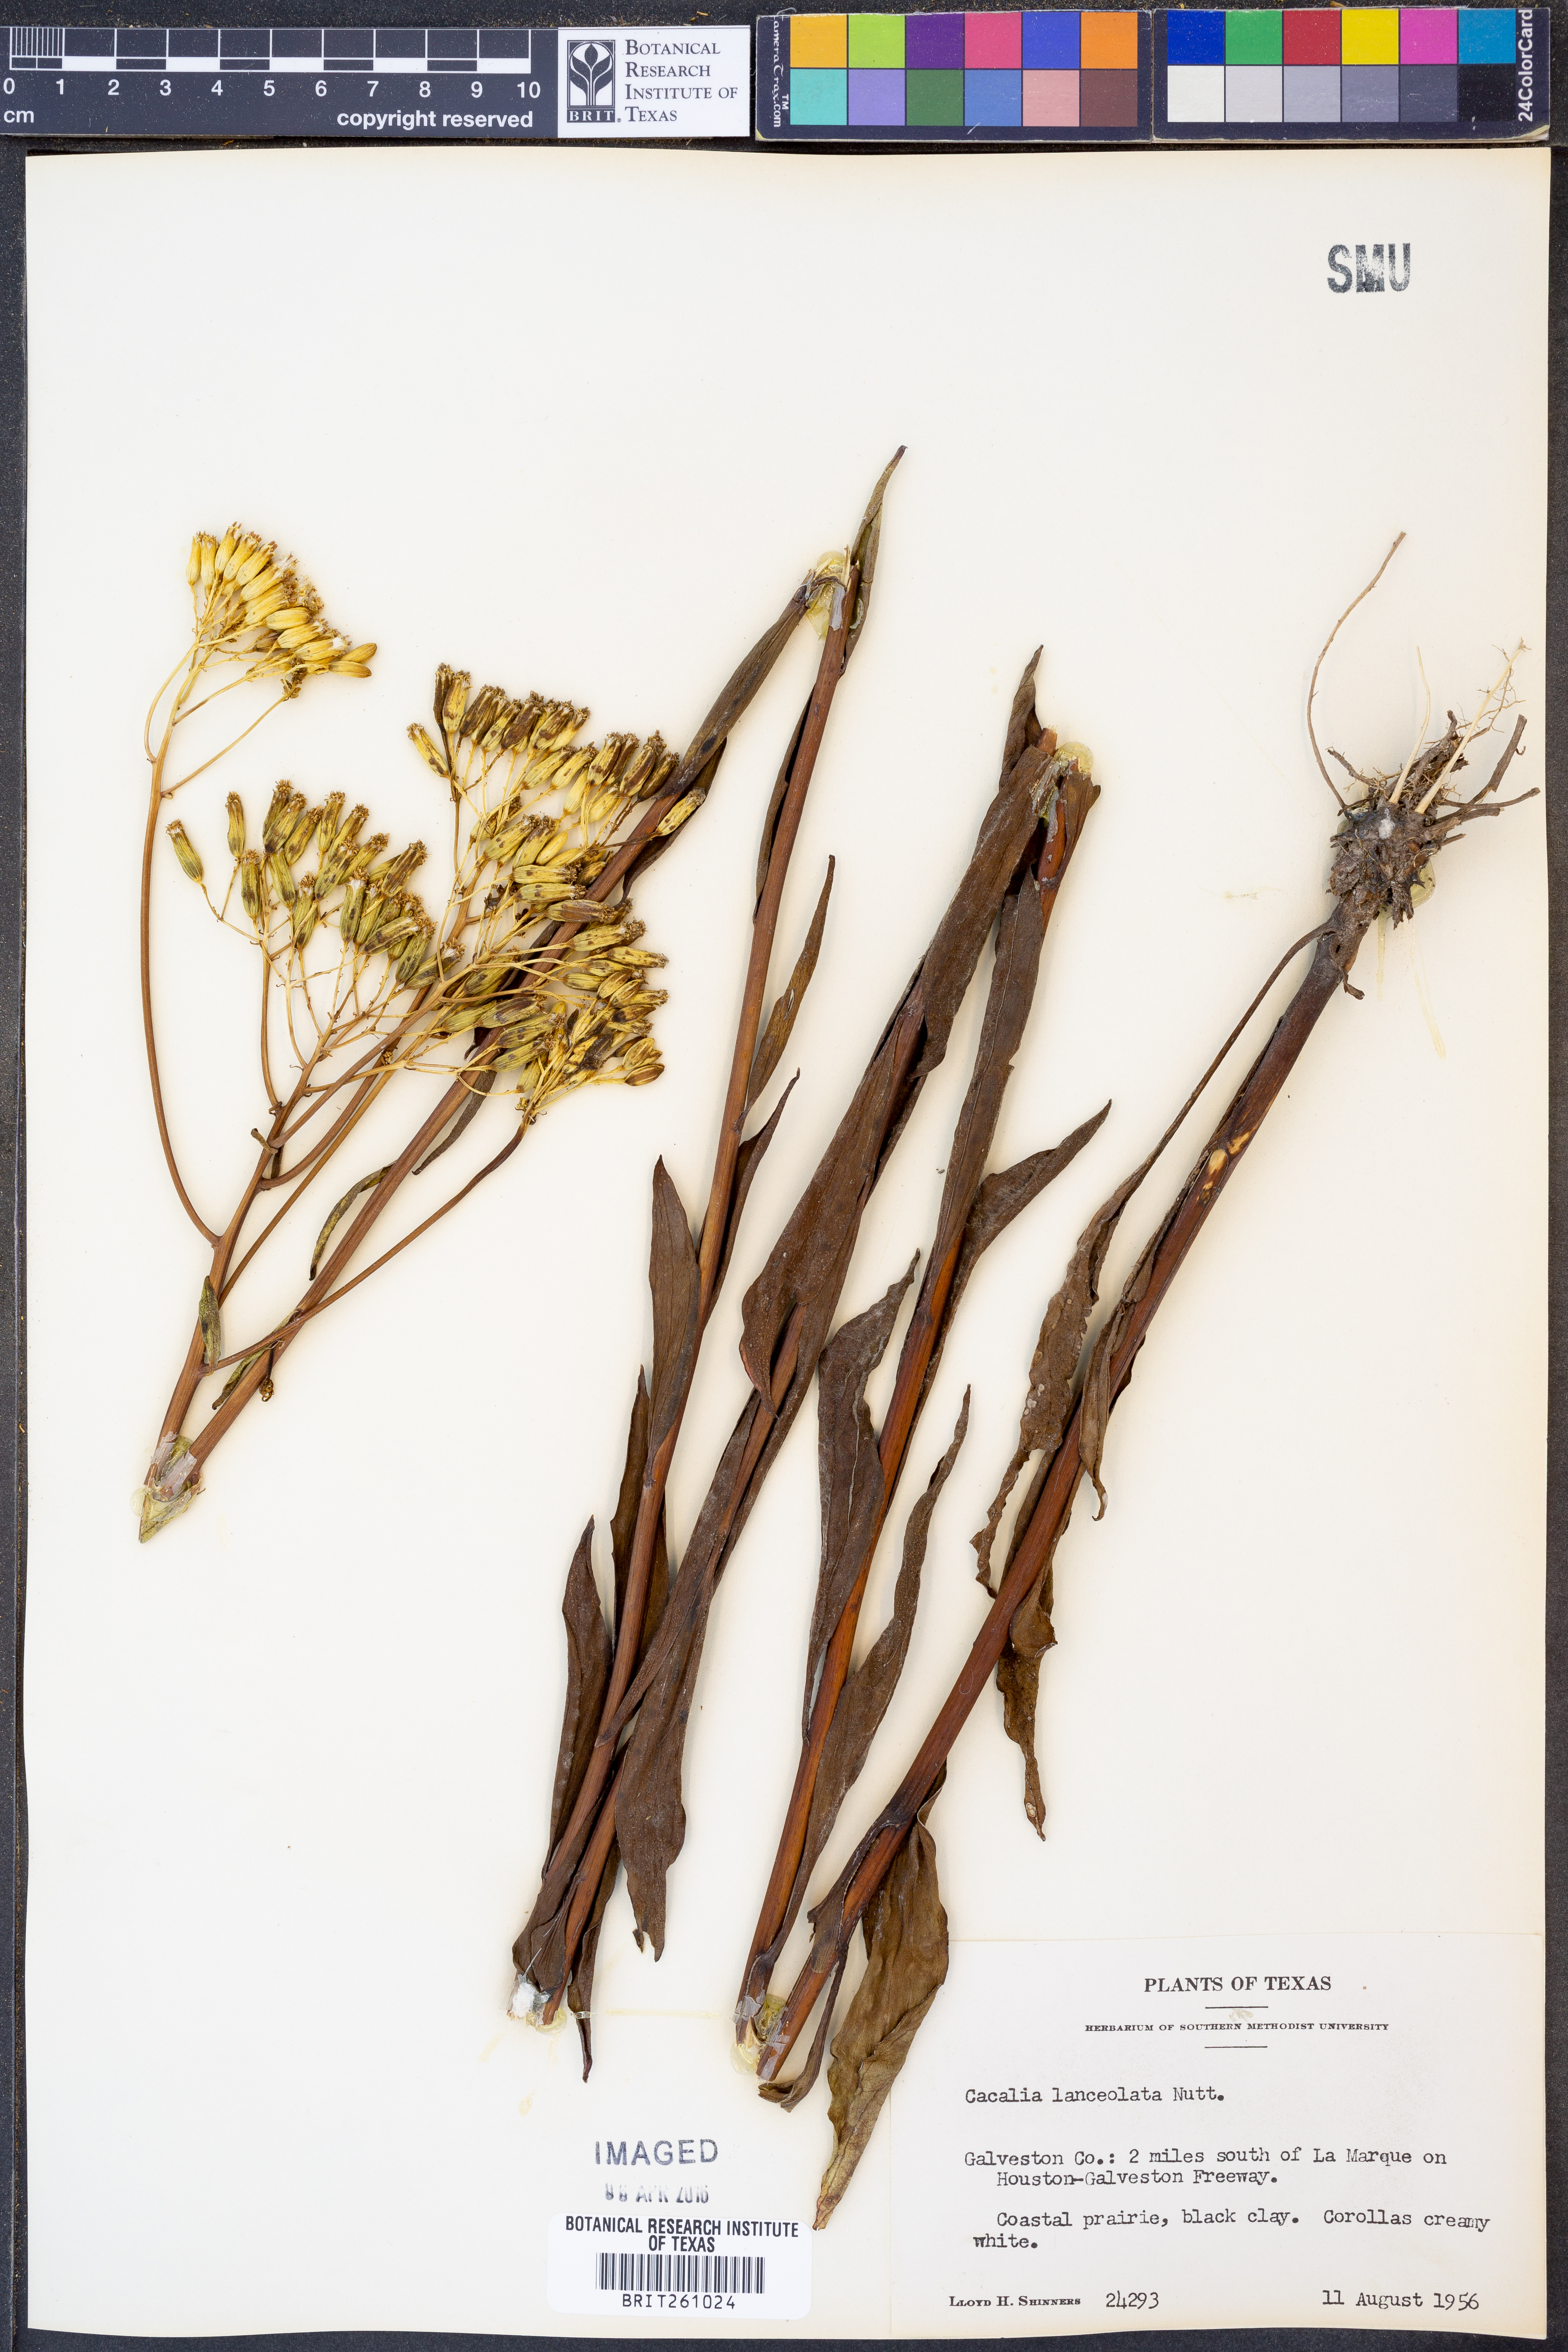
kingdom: Plantae
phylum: Tracheophyta
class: Magnoliopsida
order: Asterales
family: Asteraceae
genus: Arnoglossum
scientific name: Arnoglossum ovatum
